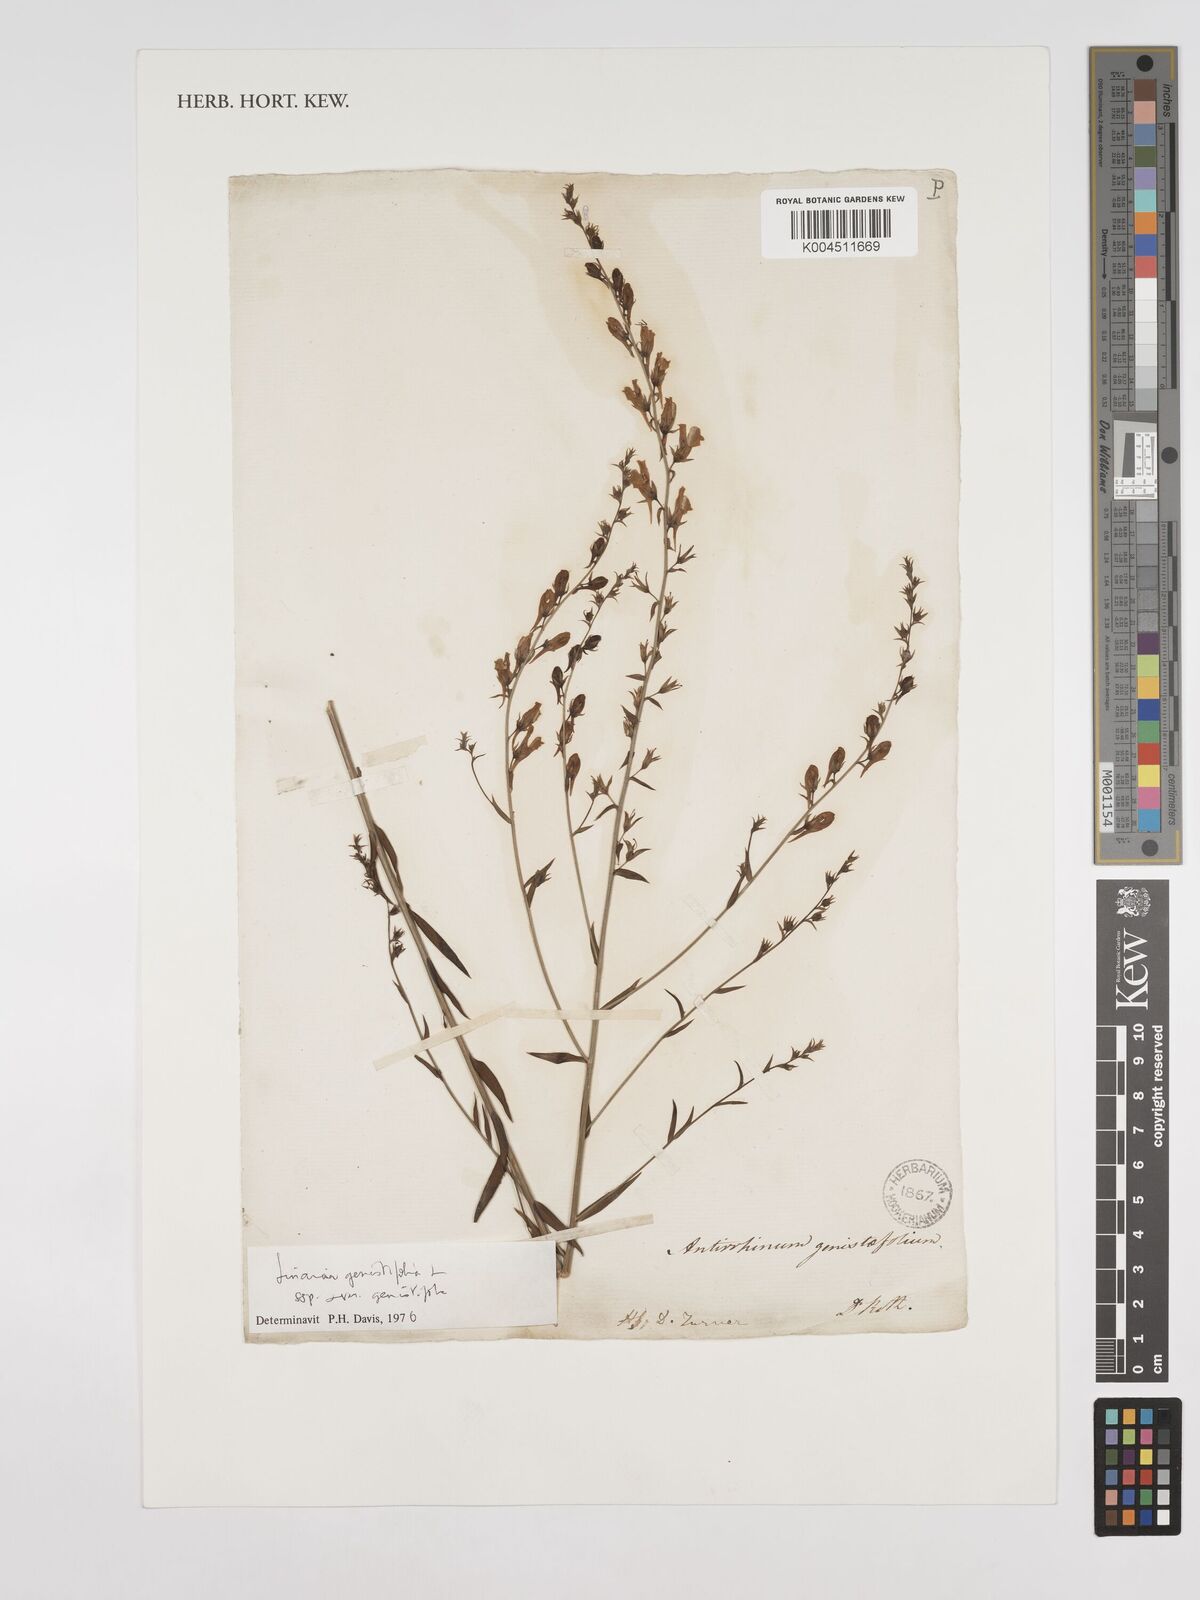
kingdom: Plantae
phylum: Tracheophyta
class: Magnoliopsida
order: Lamiales
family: Plantaginaceae
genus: Linaria
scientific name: Linaria genistifolia
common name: Broomleaf toadflax
